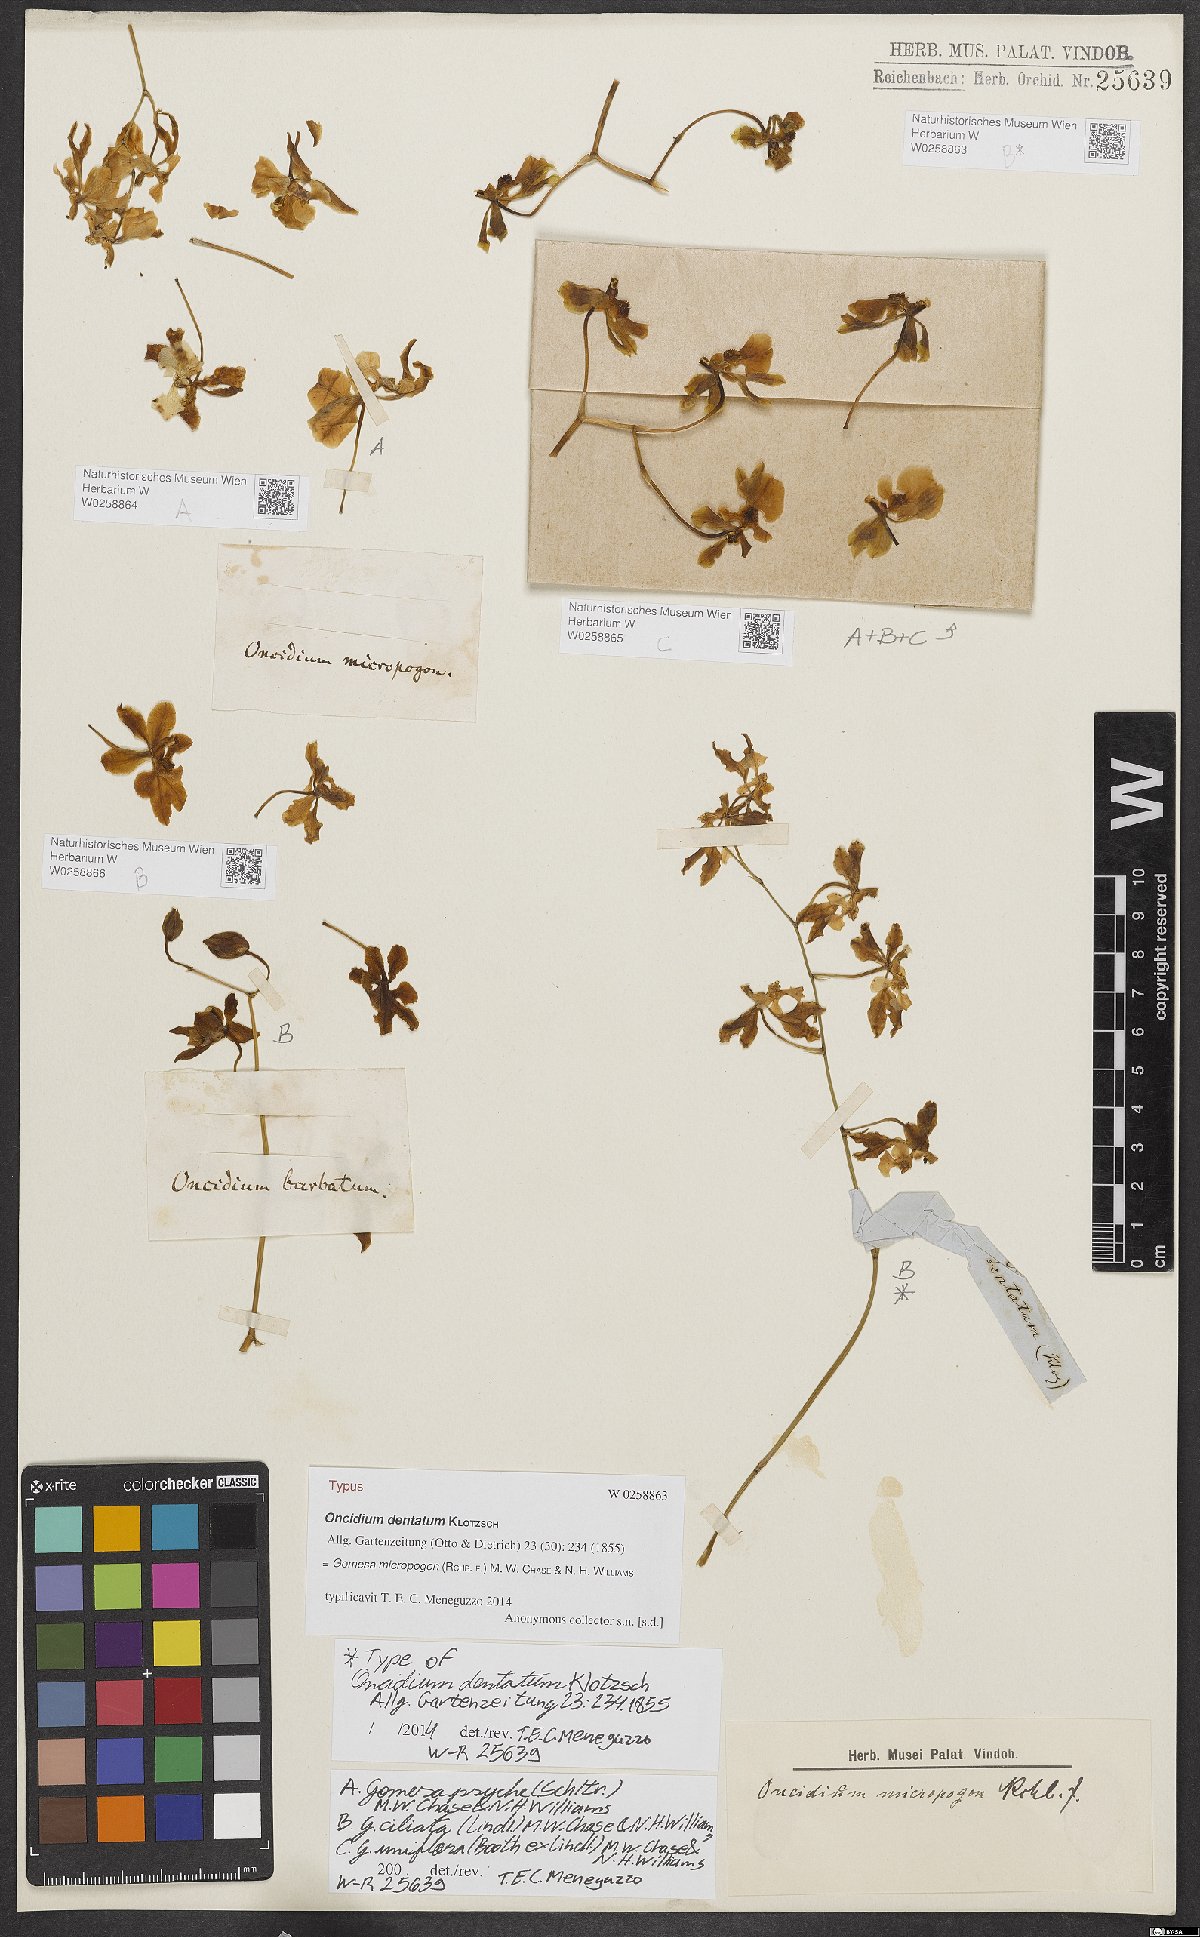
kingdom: Plantae
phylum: Tracheophyta
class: Liliopsida
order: Asparagales
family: Orchidaceae
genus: Gomesa
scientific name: Gomesa uniflora
